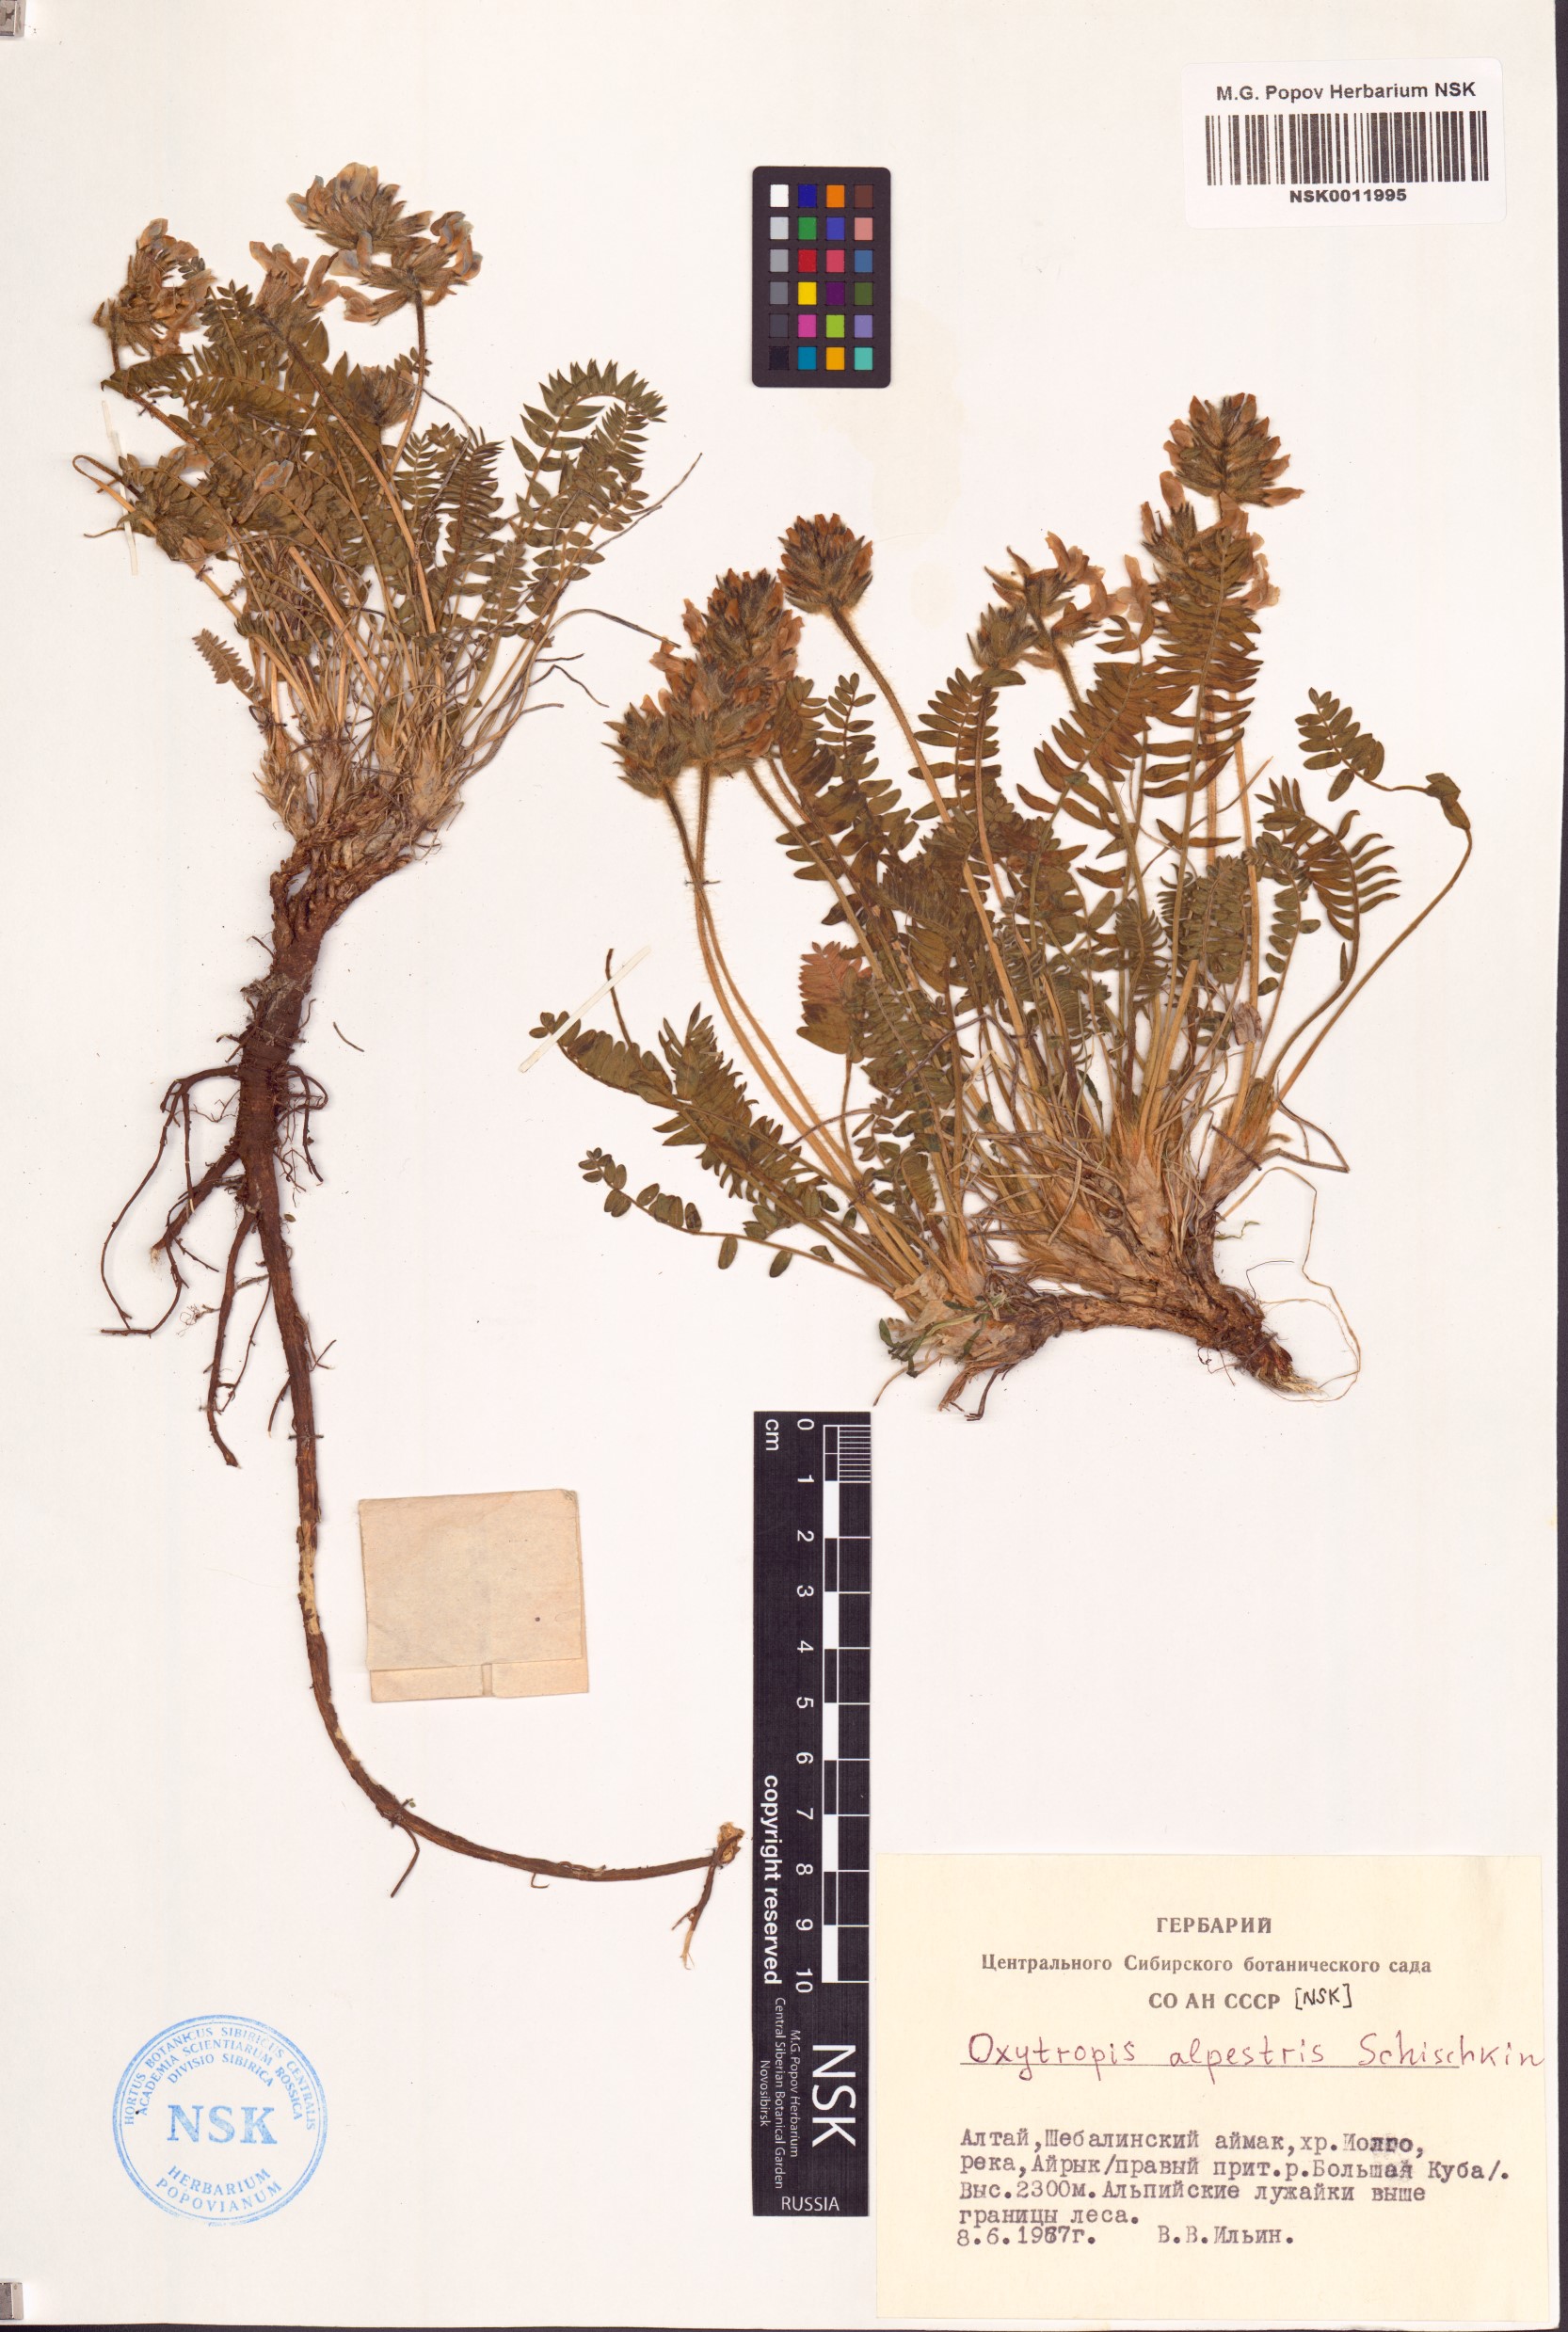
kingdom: Plantae
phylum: Tracheophyta
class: Magnoliopsida
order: Fabales
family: Fabaceae
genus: Oxytropis
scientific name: Oxytropis alpestris
